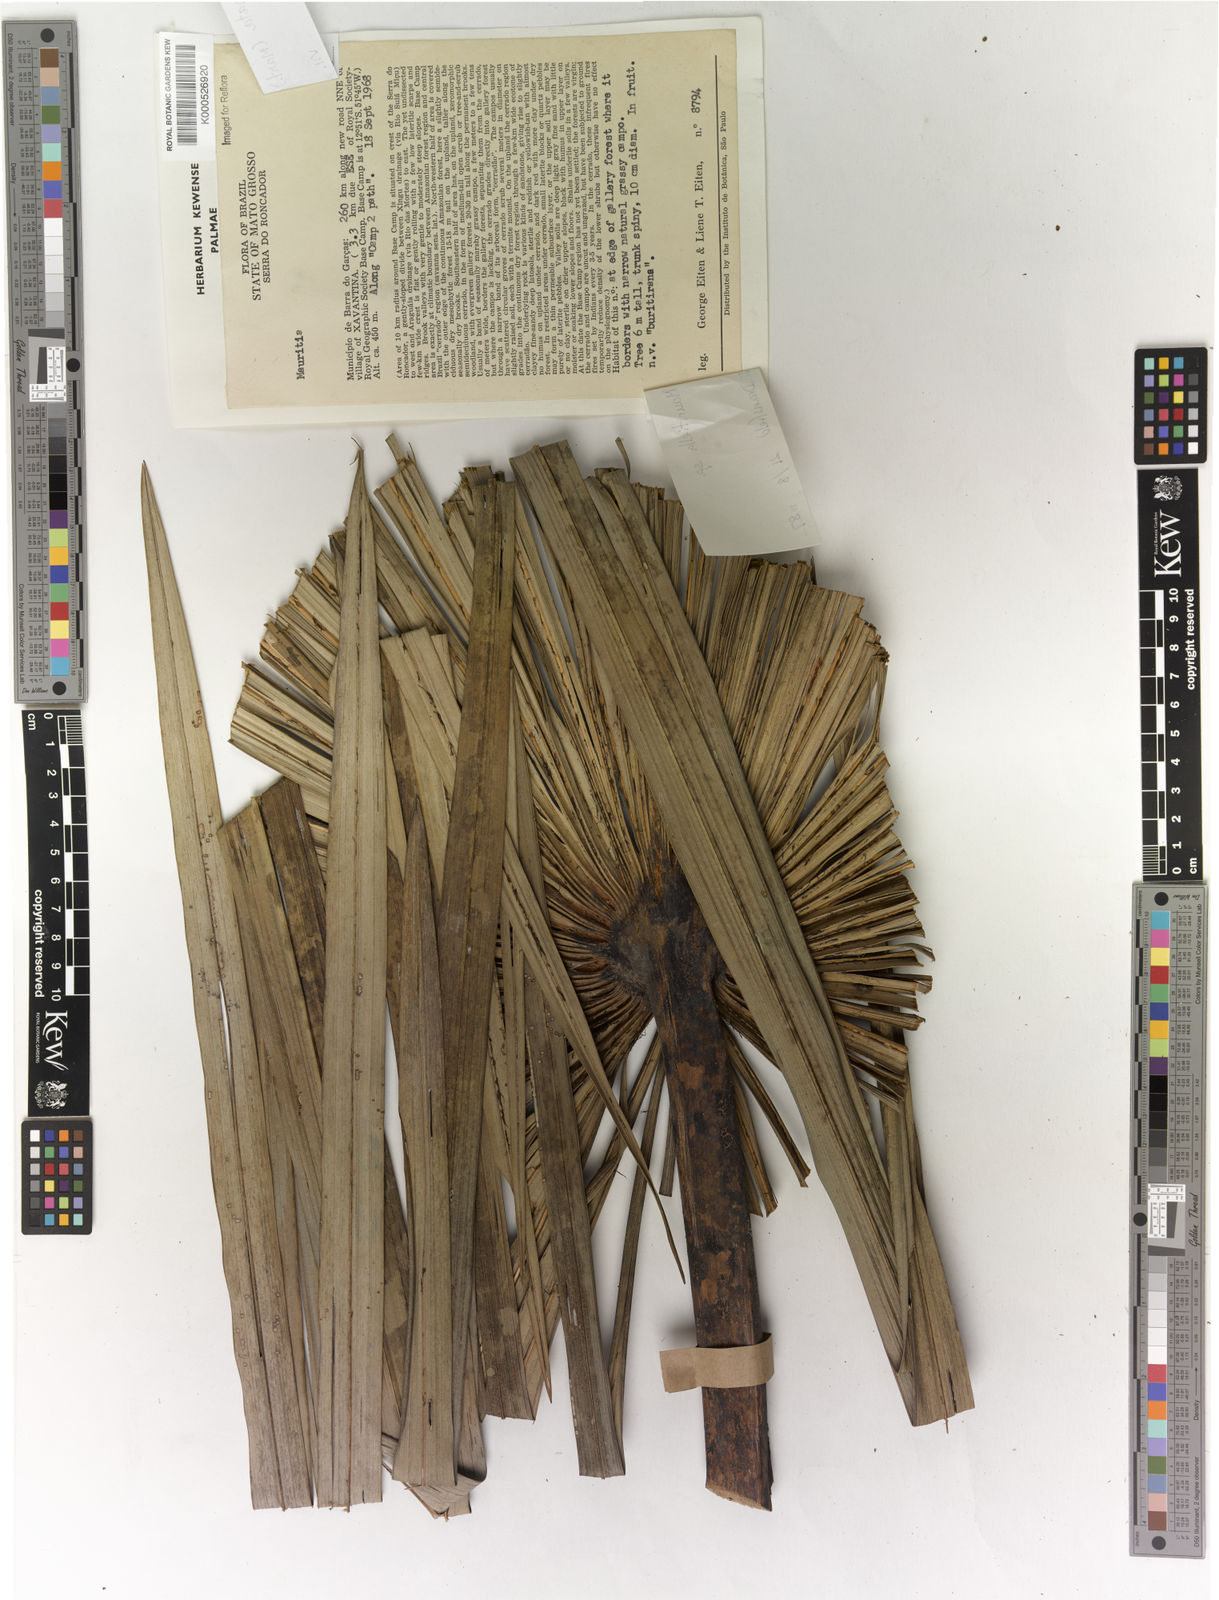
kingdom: Plantae
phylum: Tracheophyta
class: Liliopsida
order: Arecales
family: Arecaceae
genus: Mauritiella
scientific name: Mauritiella armata
